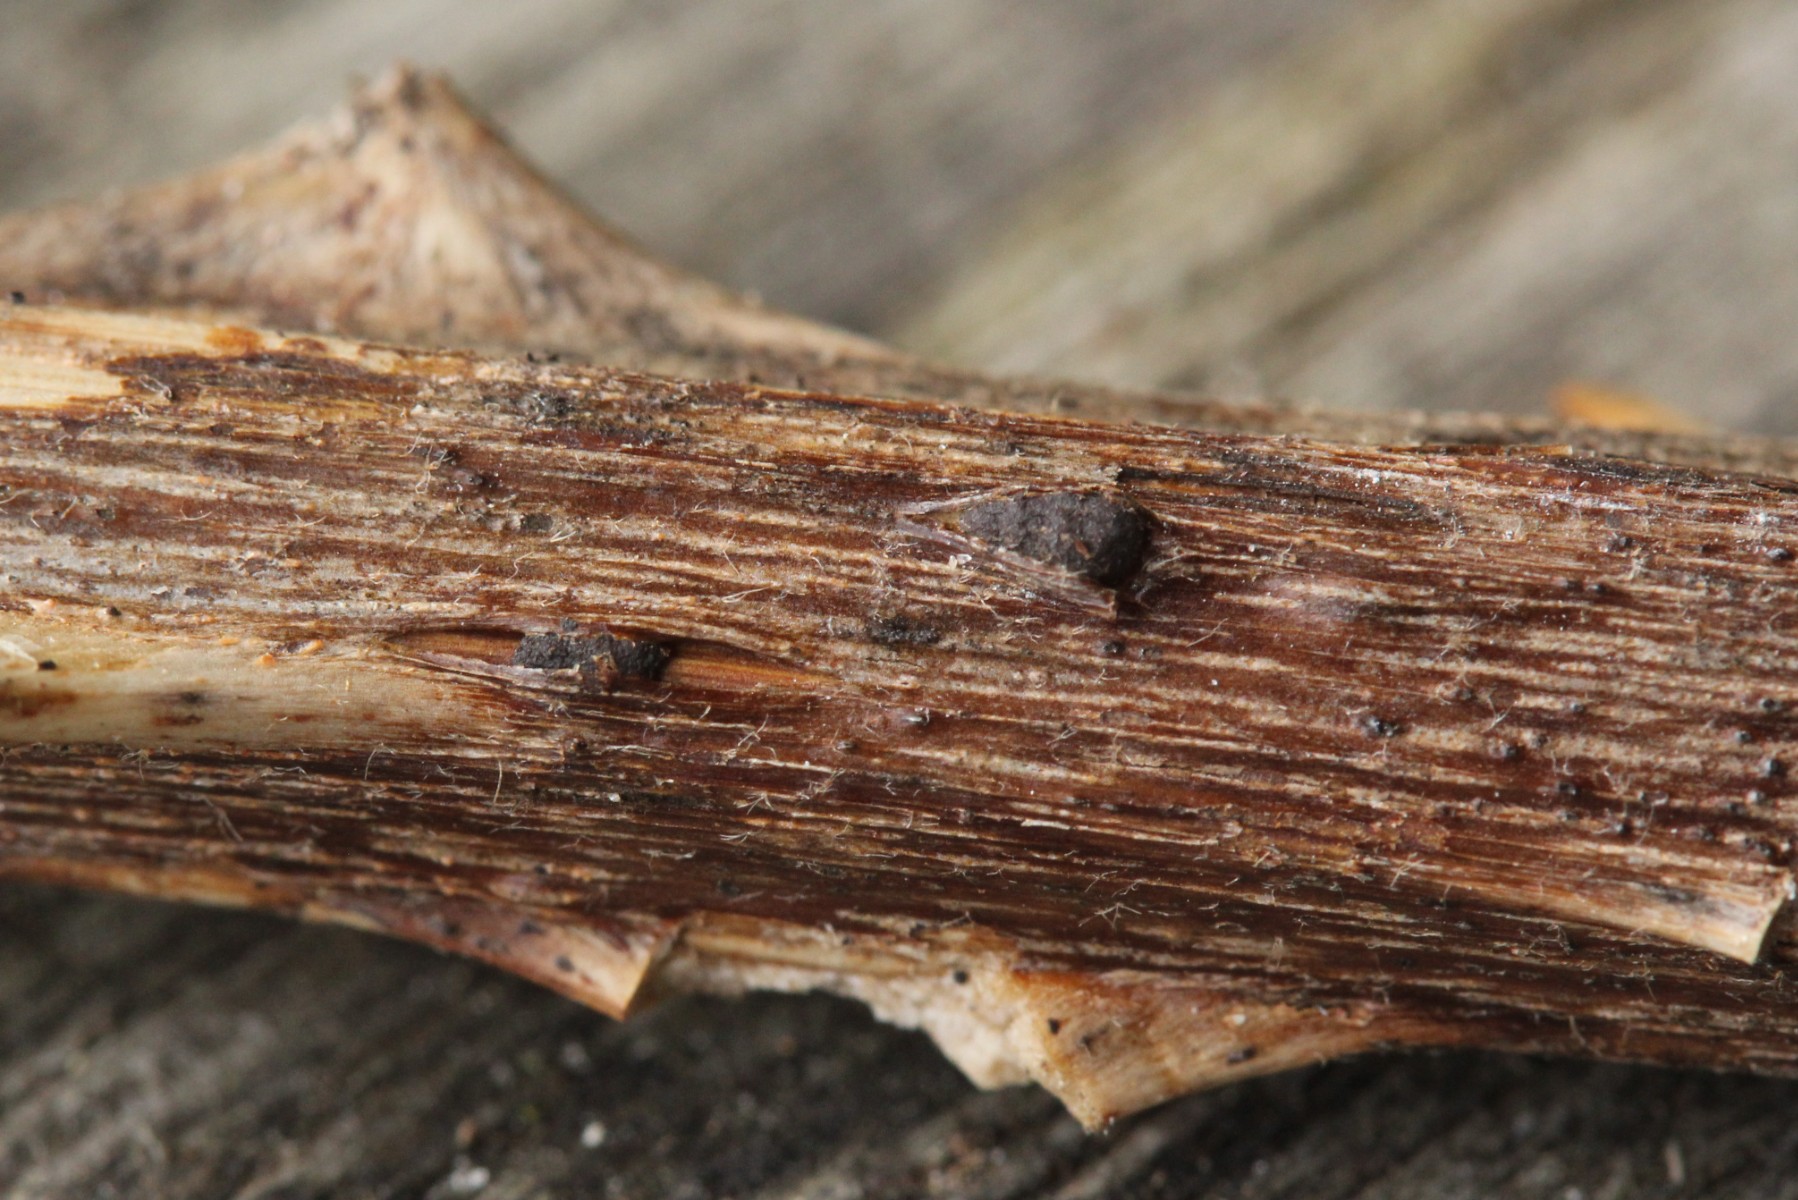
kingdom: Fungi
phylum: Ascomycota
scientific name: Ascomycota
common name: sæksvampe
